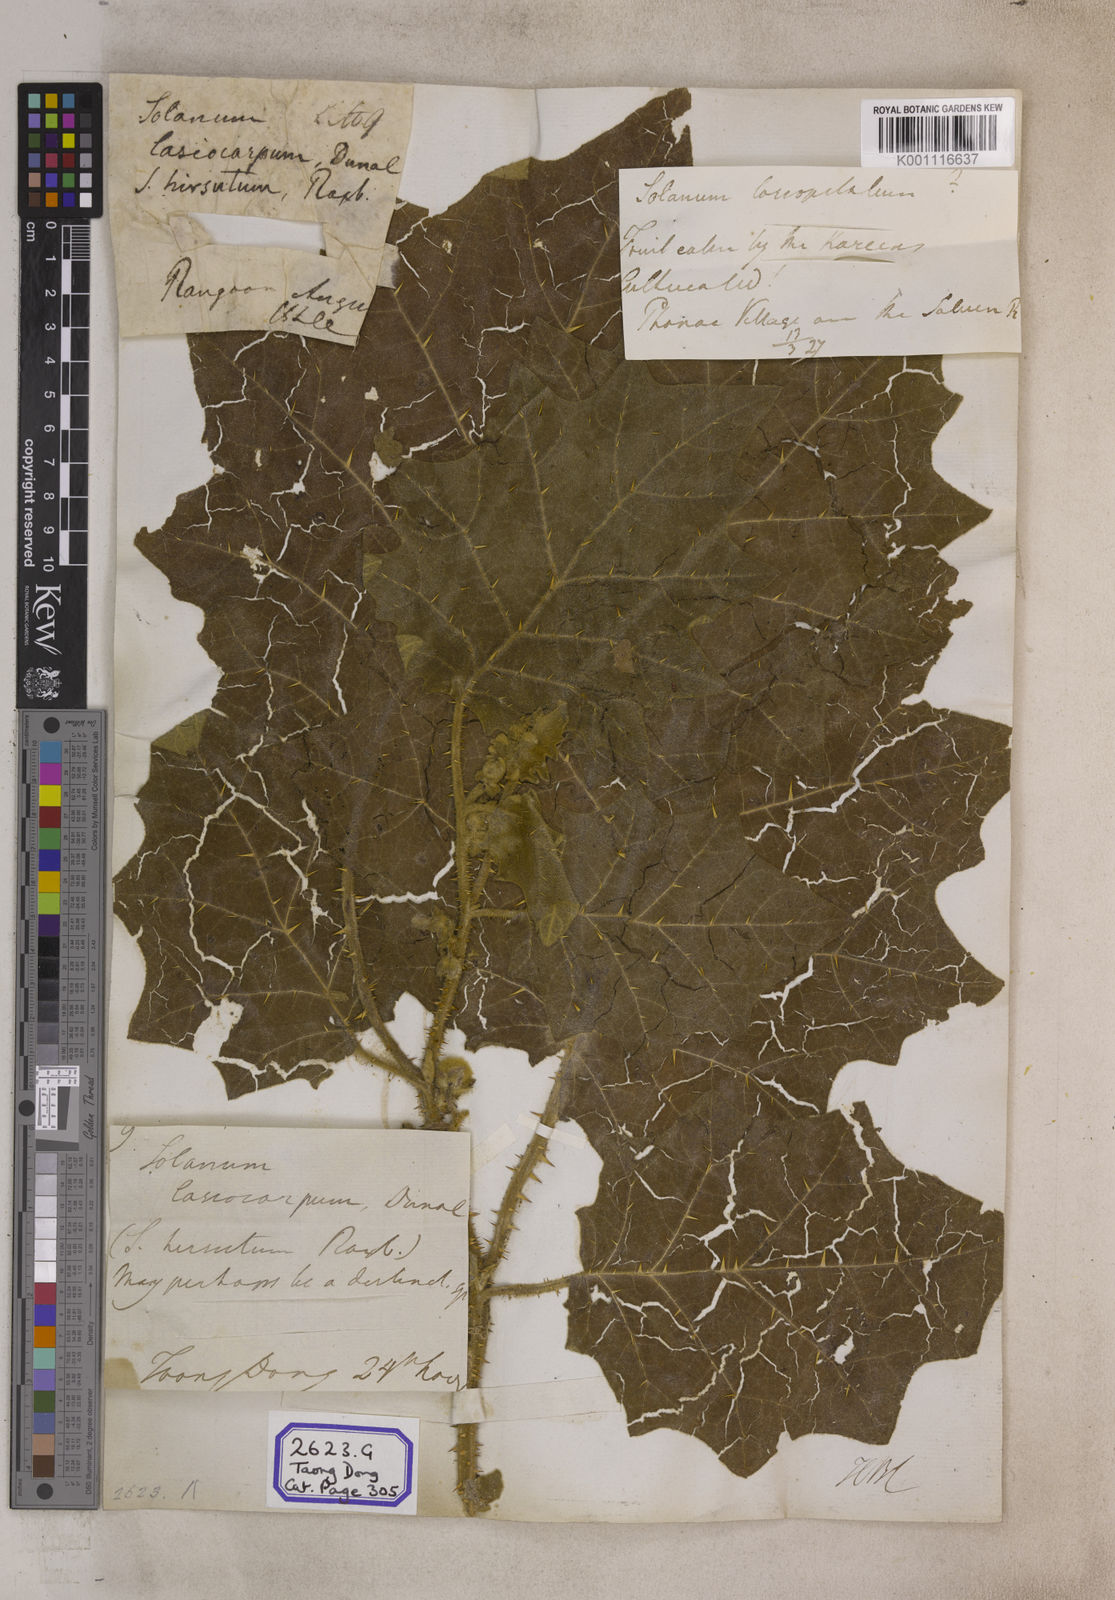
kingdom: Plantae
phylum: Tracheophyta
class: Magnoliopsida
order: Solanales
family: Solanaceae
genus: Solanum
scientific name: Solanum lasiocarpum
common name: Indian nightshade
